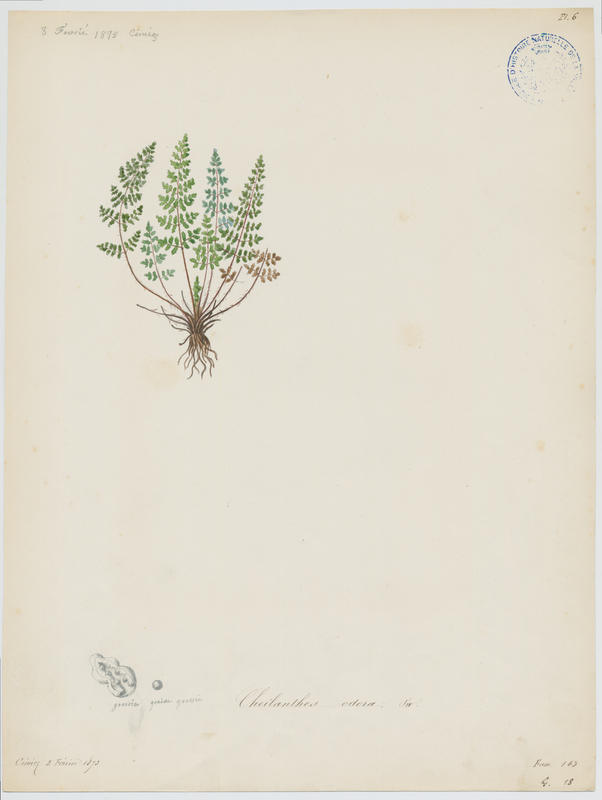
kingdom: Plantae
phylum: Tracheophyta
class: Polypodiopsida
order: Polypodiales
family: Pteridaceae
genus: Oeosporangium
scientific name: Oeosporangium pteridioides
